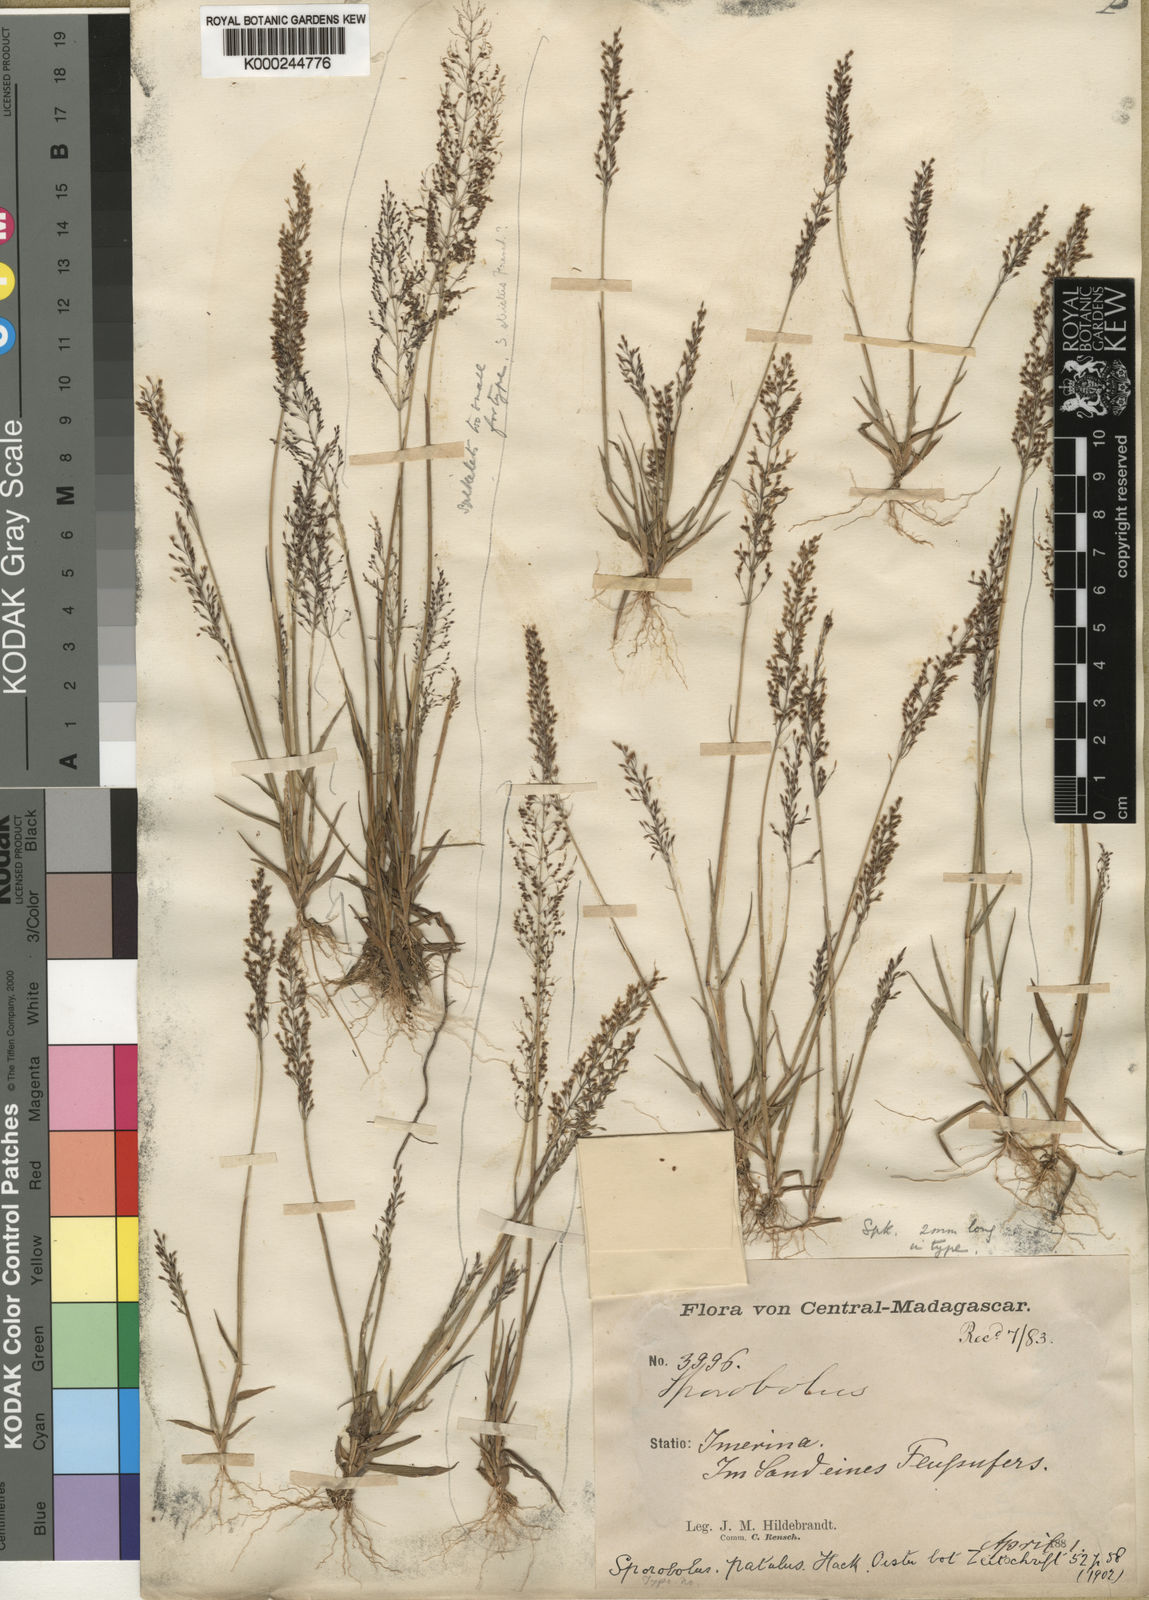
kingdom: Plantae
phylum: Tracheophyta
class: Liliopsida
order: Poales
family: Poaceae
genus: Sporobolus
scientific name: Sporobolus paniculatus
